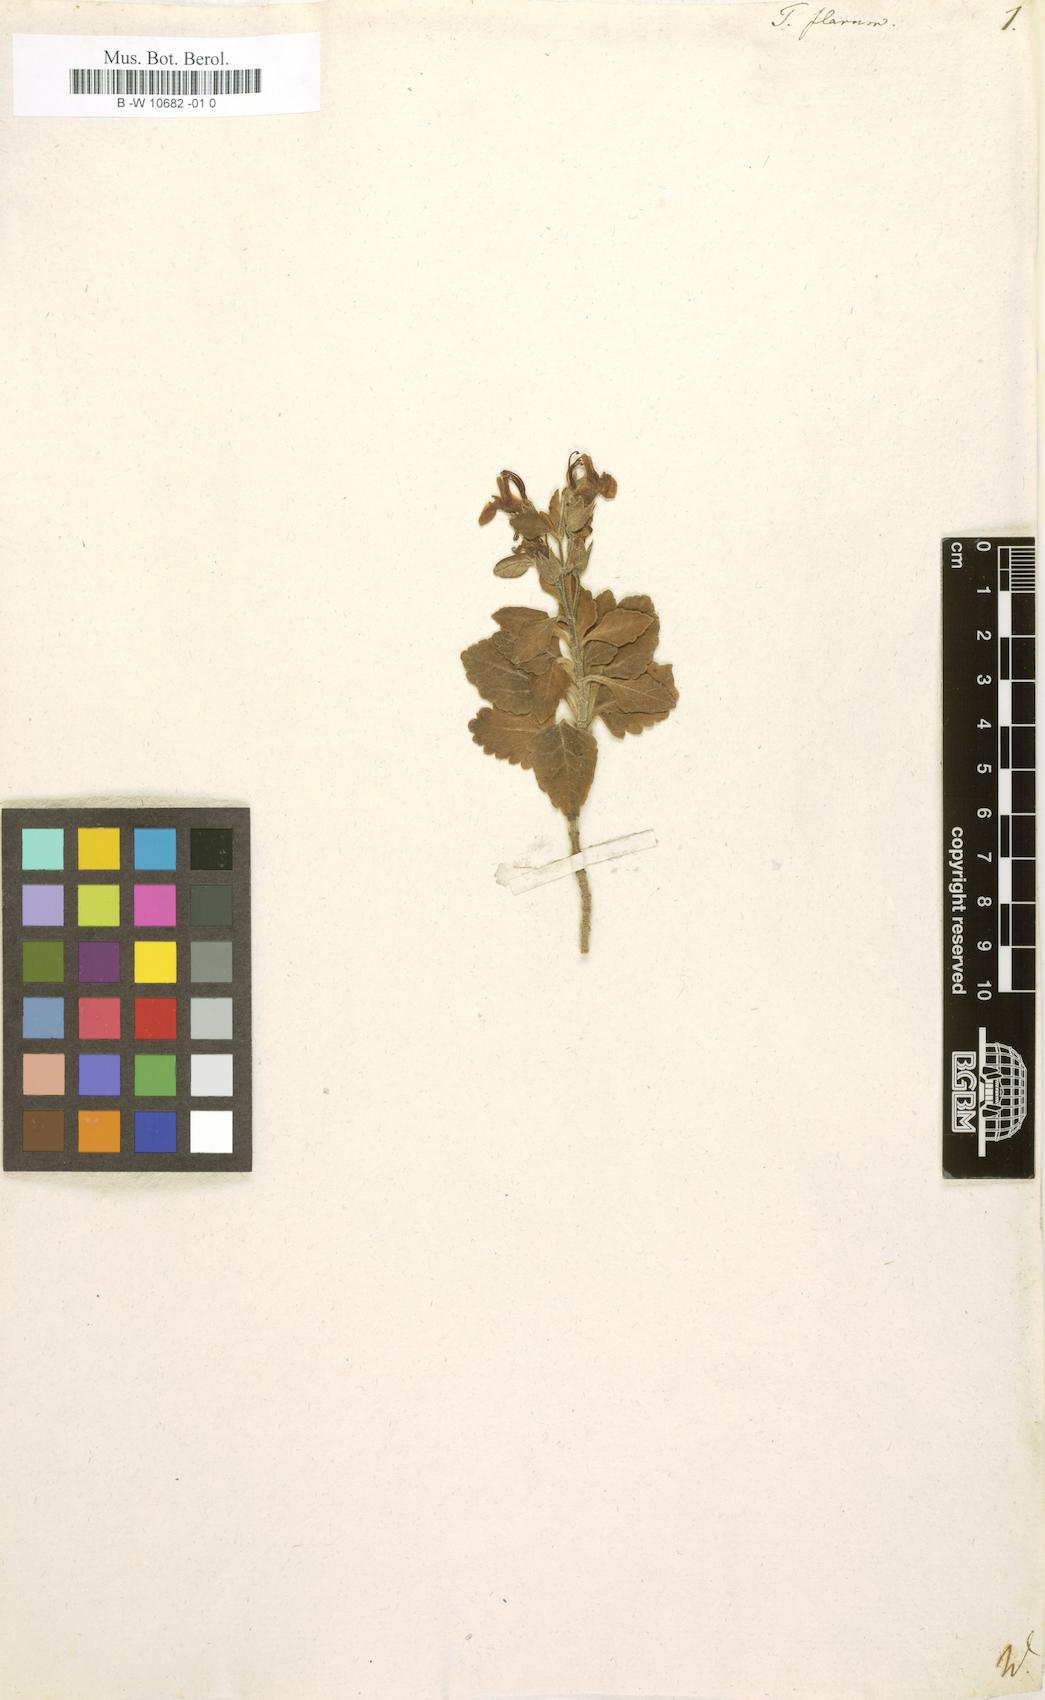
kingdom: Plantae
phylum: Tracheophyta
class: Magnoliopsida
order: Lamiales
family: Lamiaceae
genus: Teucrium
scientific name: Teucrium flavum
